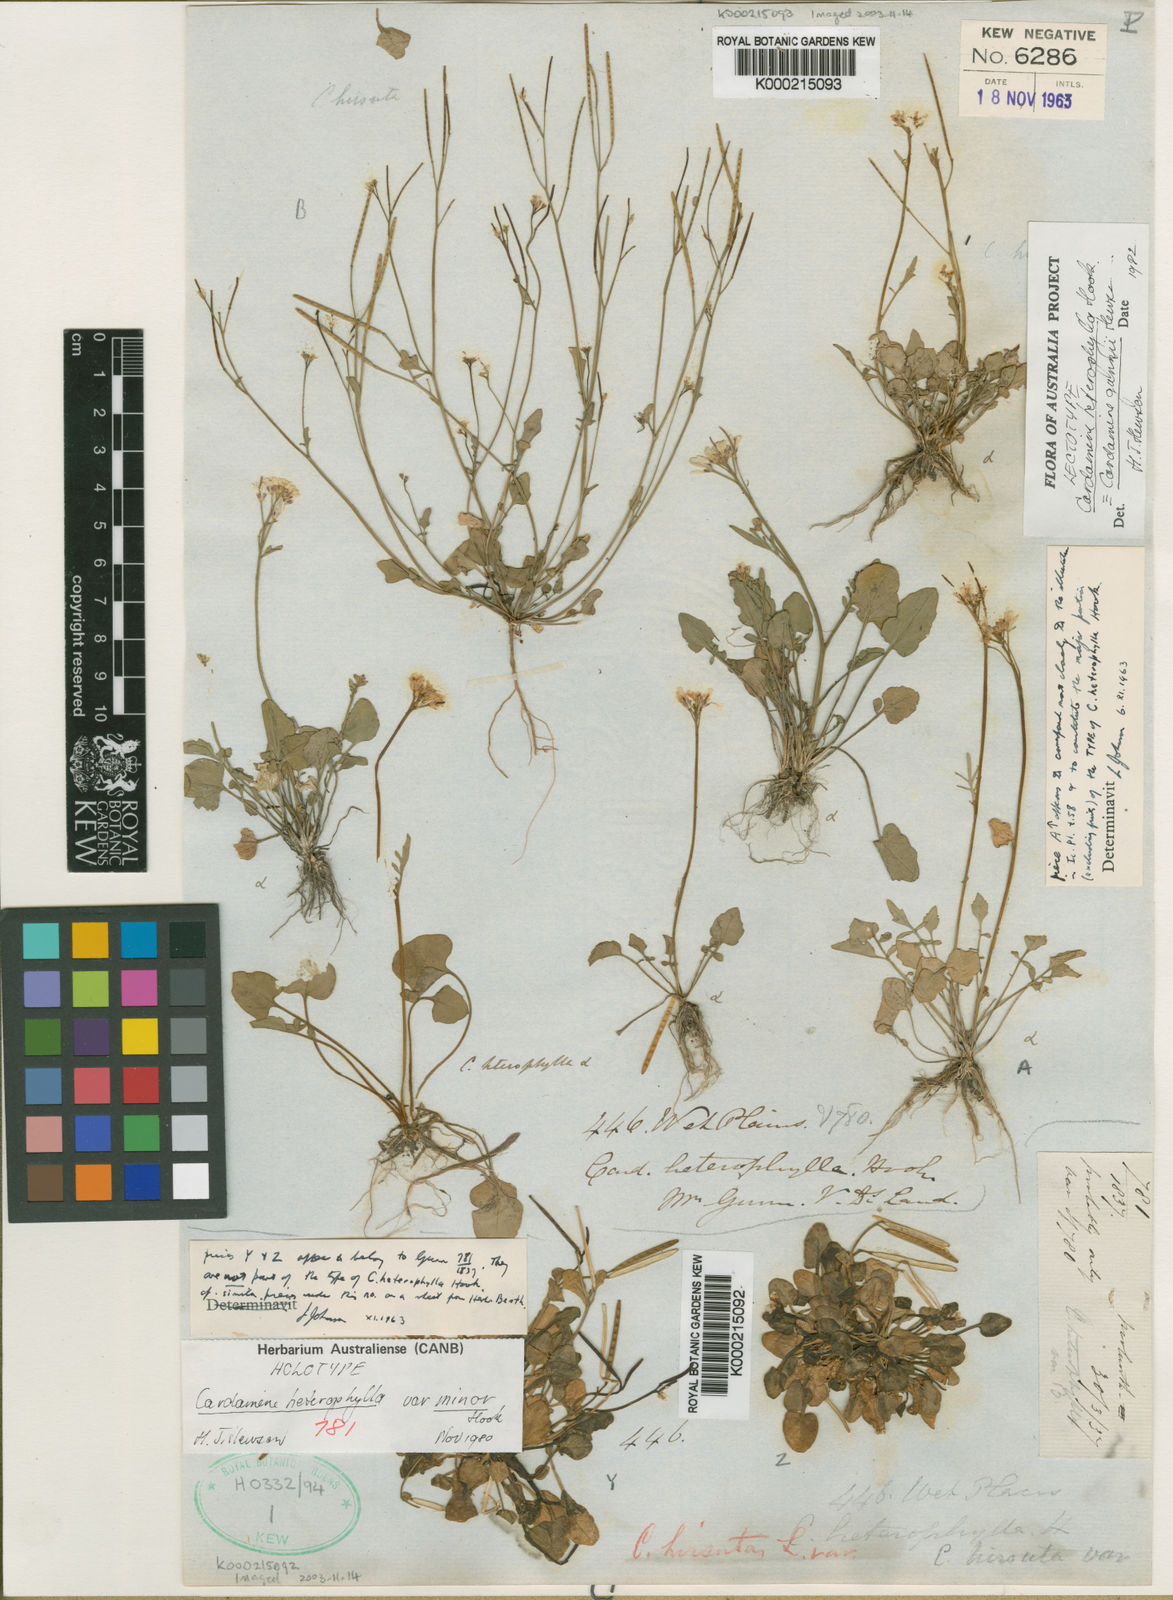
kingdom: Plantae
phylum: Tracheophyta
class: Magnoliopsida
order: Brassicales
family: Brassicaceae
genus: Cardamine
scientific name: Cardamine gunnii
